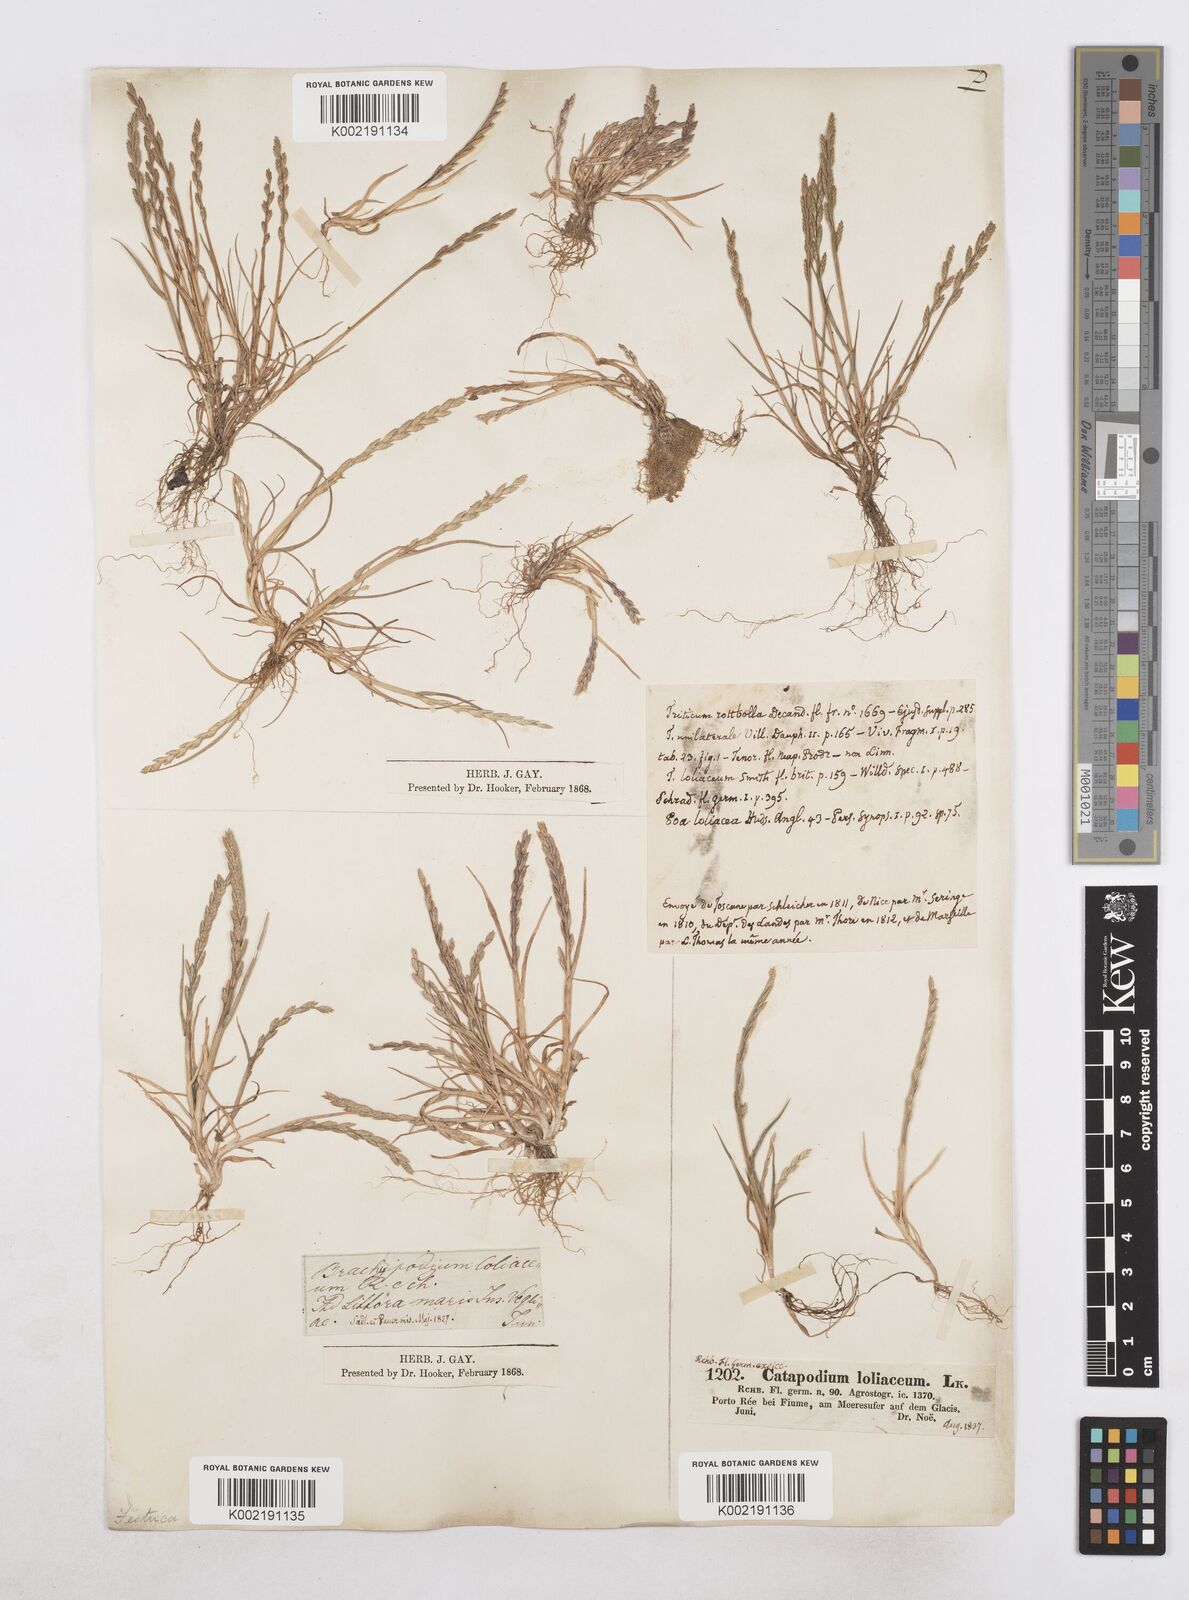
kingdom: Plantae
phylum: Tracheophyta
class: Liliopsida
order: Poales
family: Poaceae
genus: Catapodium
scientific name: Catapodium marinum
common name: Sea fern-grass
